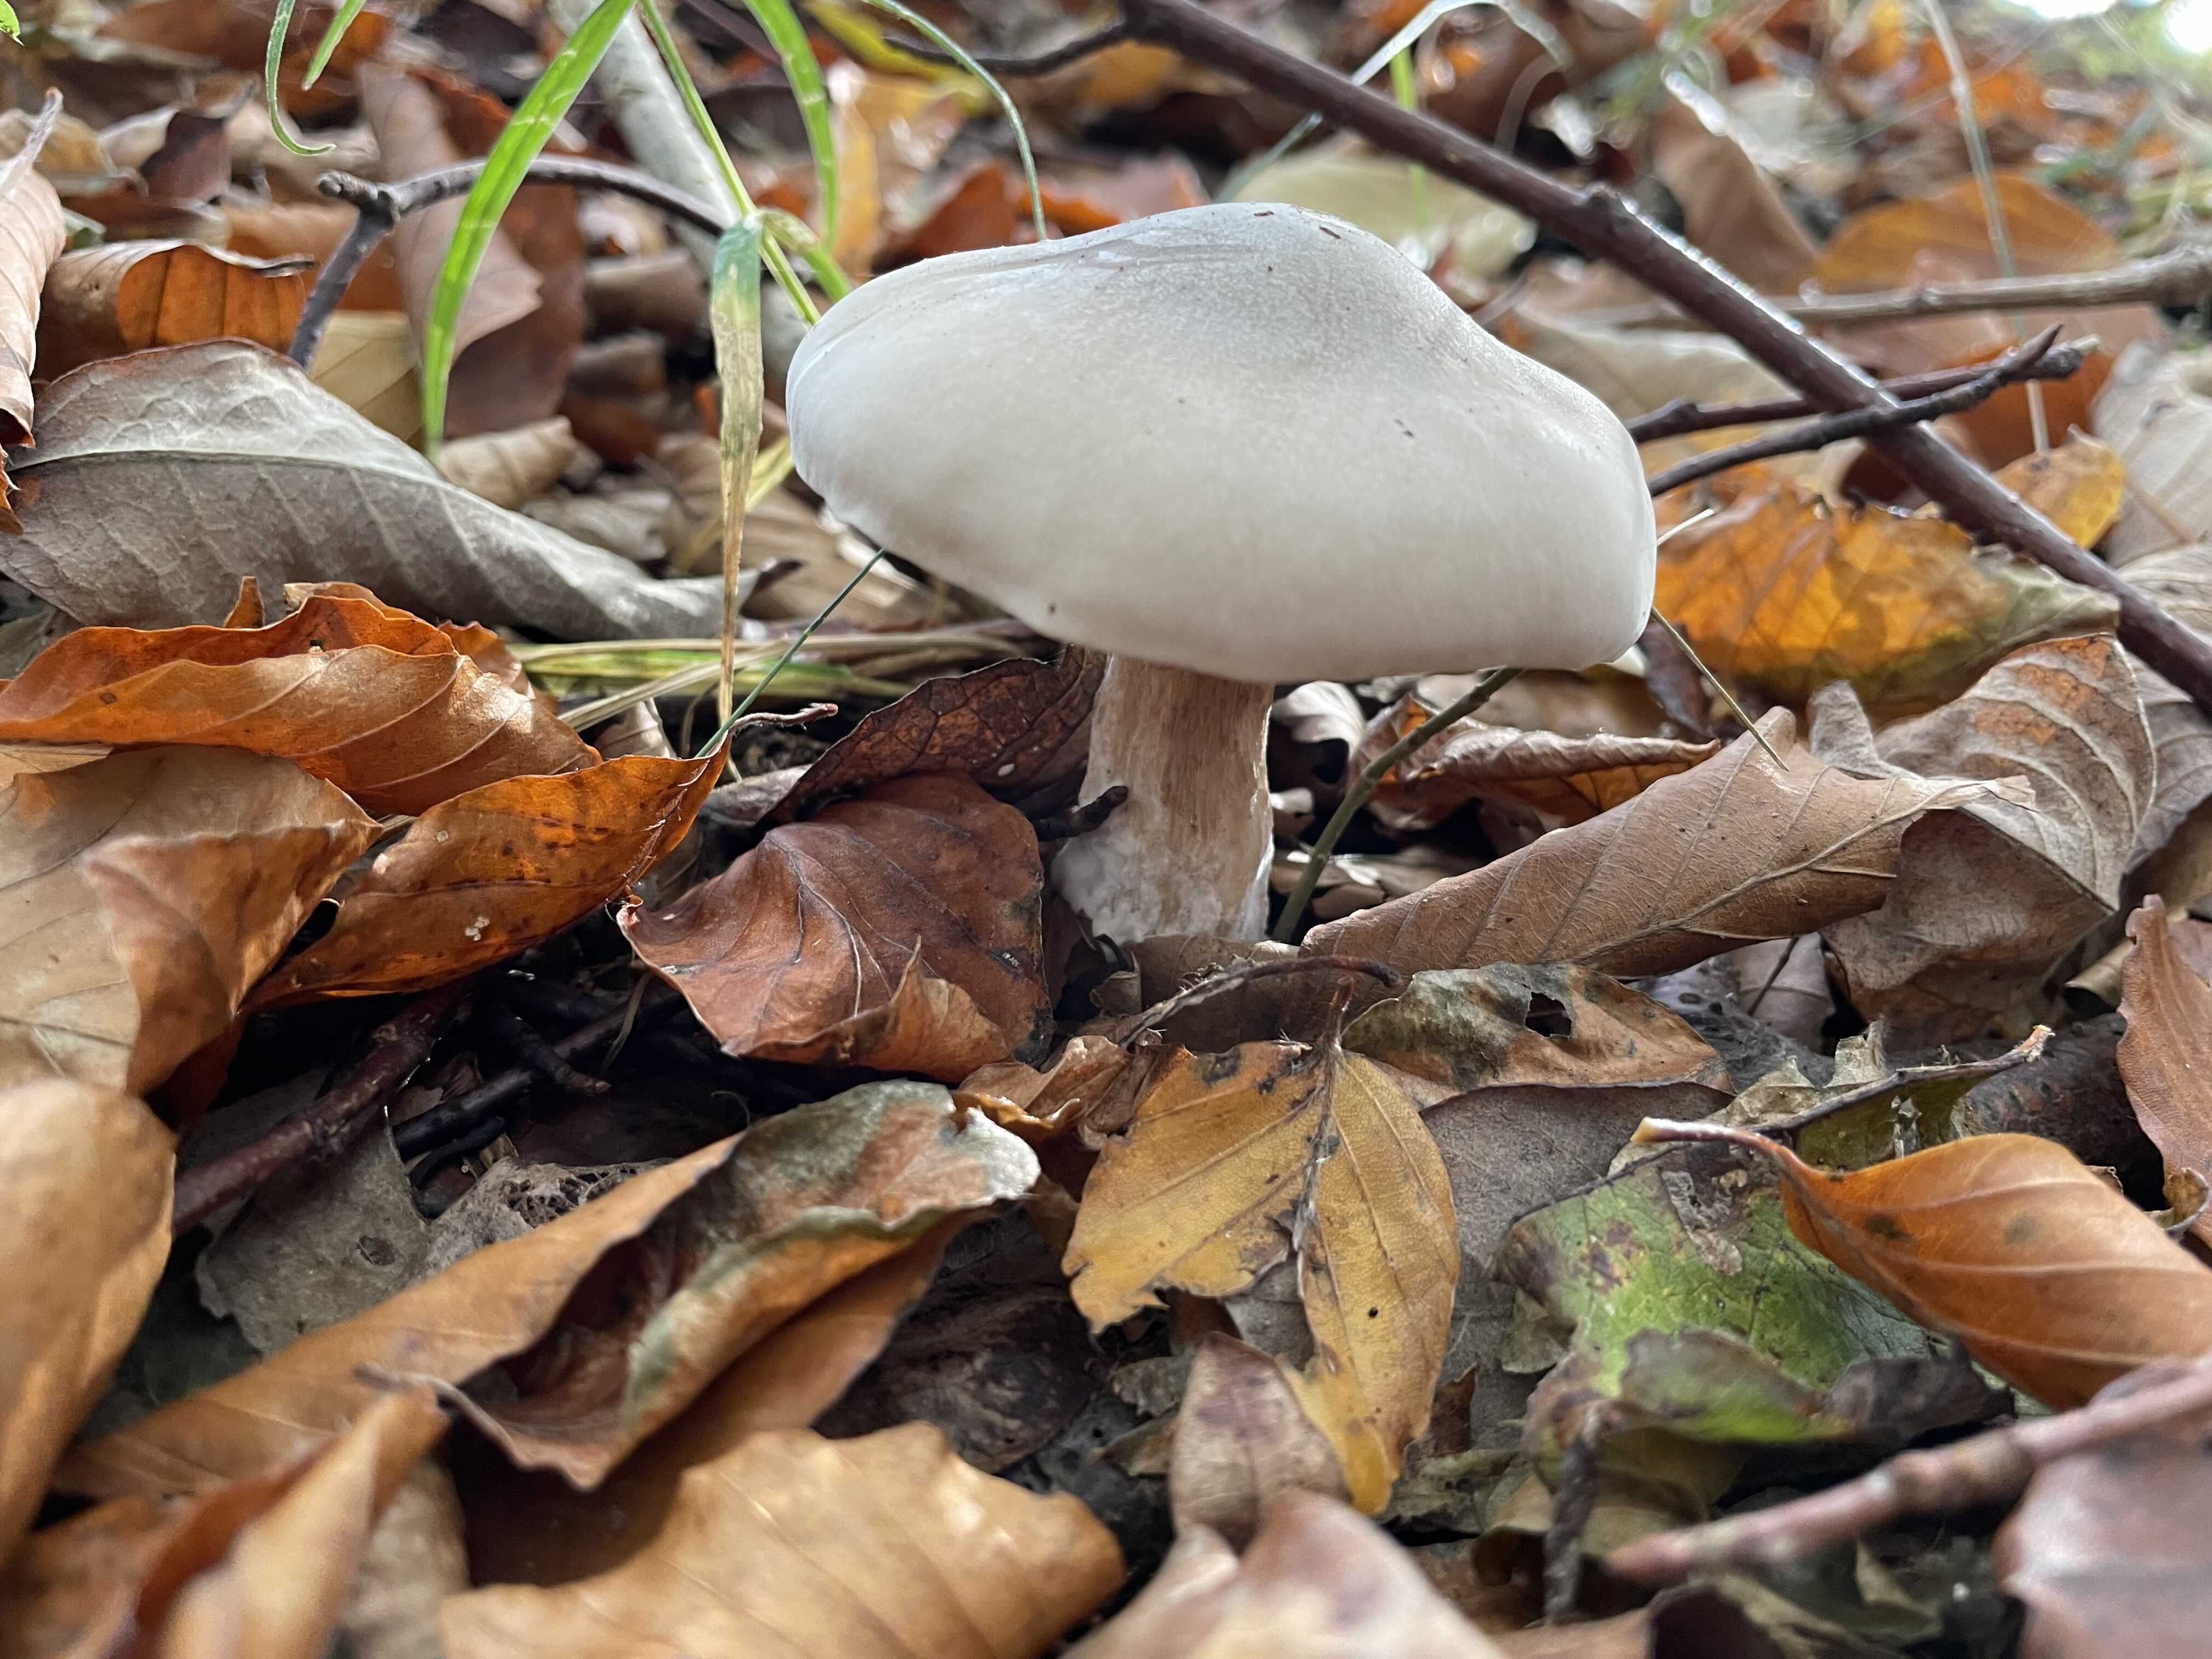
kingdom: Fungi
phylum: Basidiomycota
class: Agaricomycetes
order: Agaricales
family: Tricholomataceae
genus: Clitocybe
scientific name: Clitocybe nebularis
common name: tåge-tragthat
